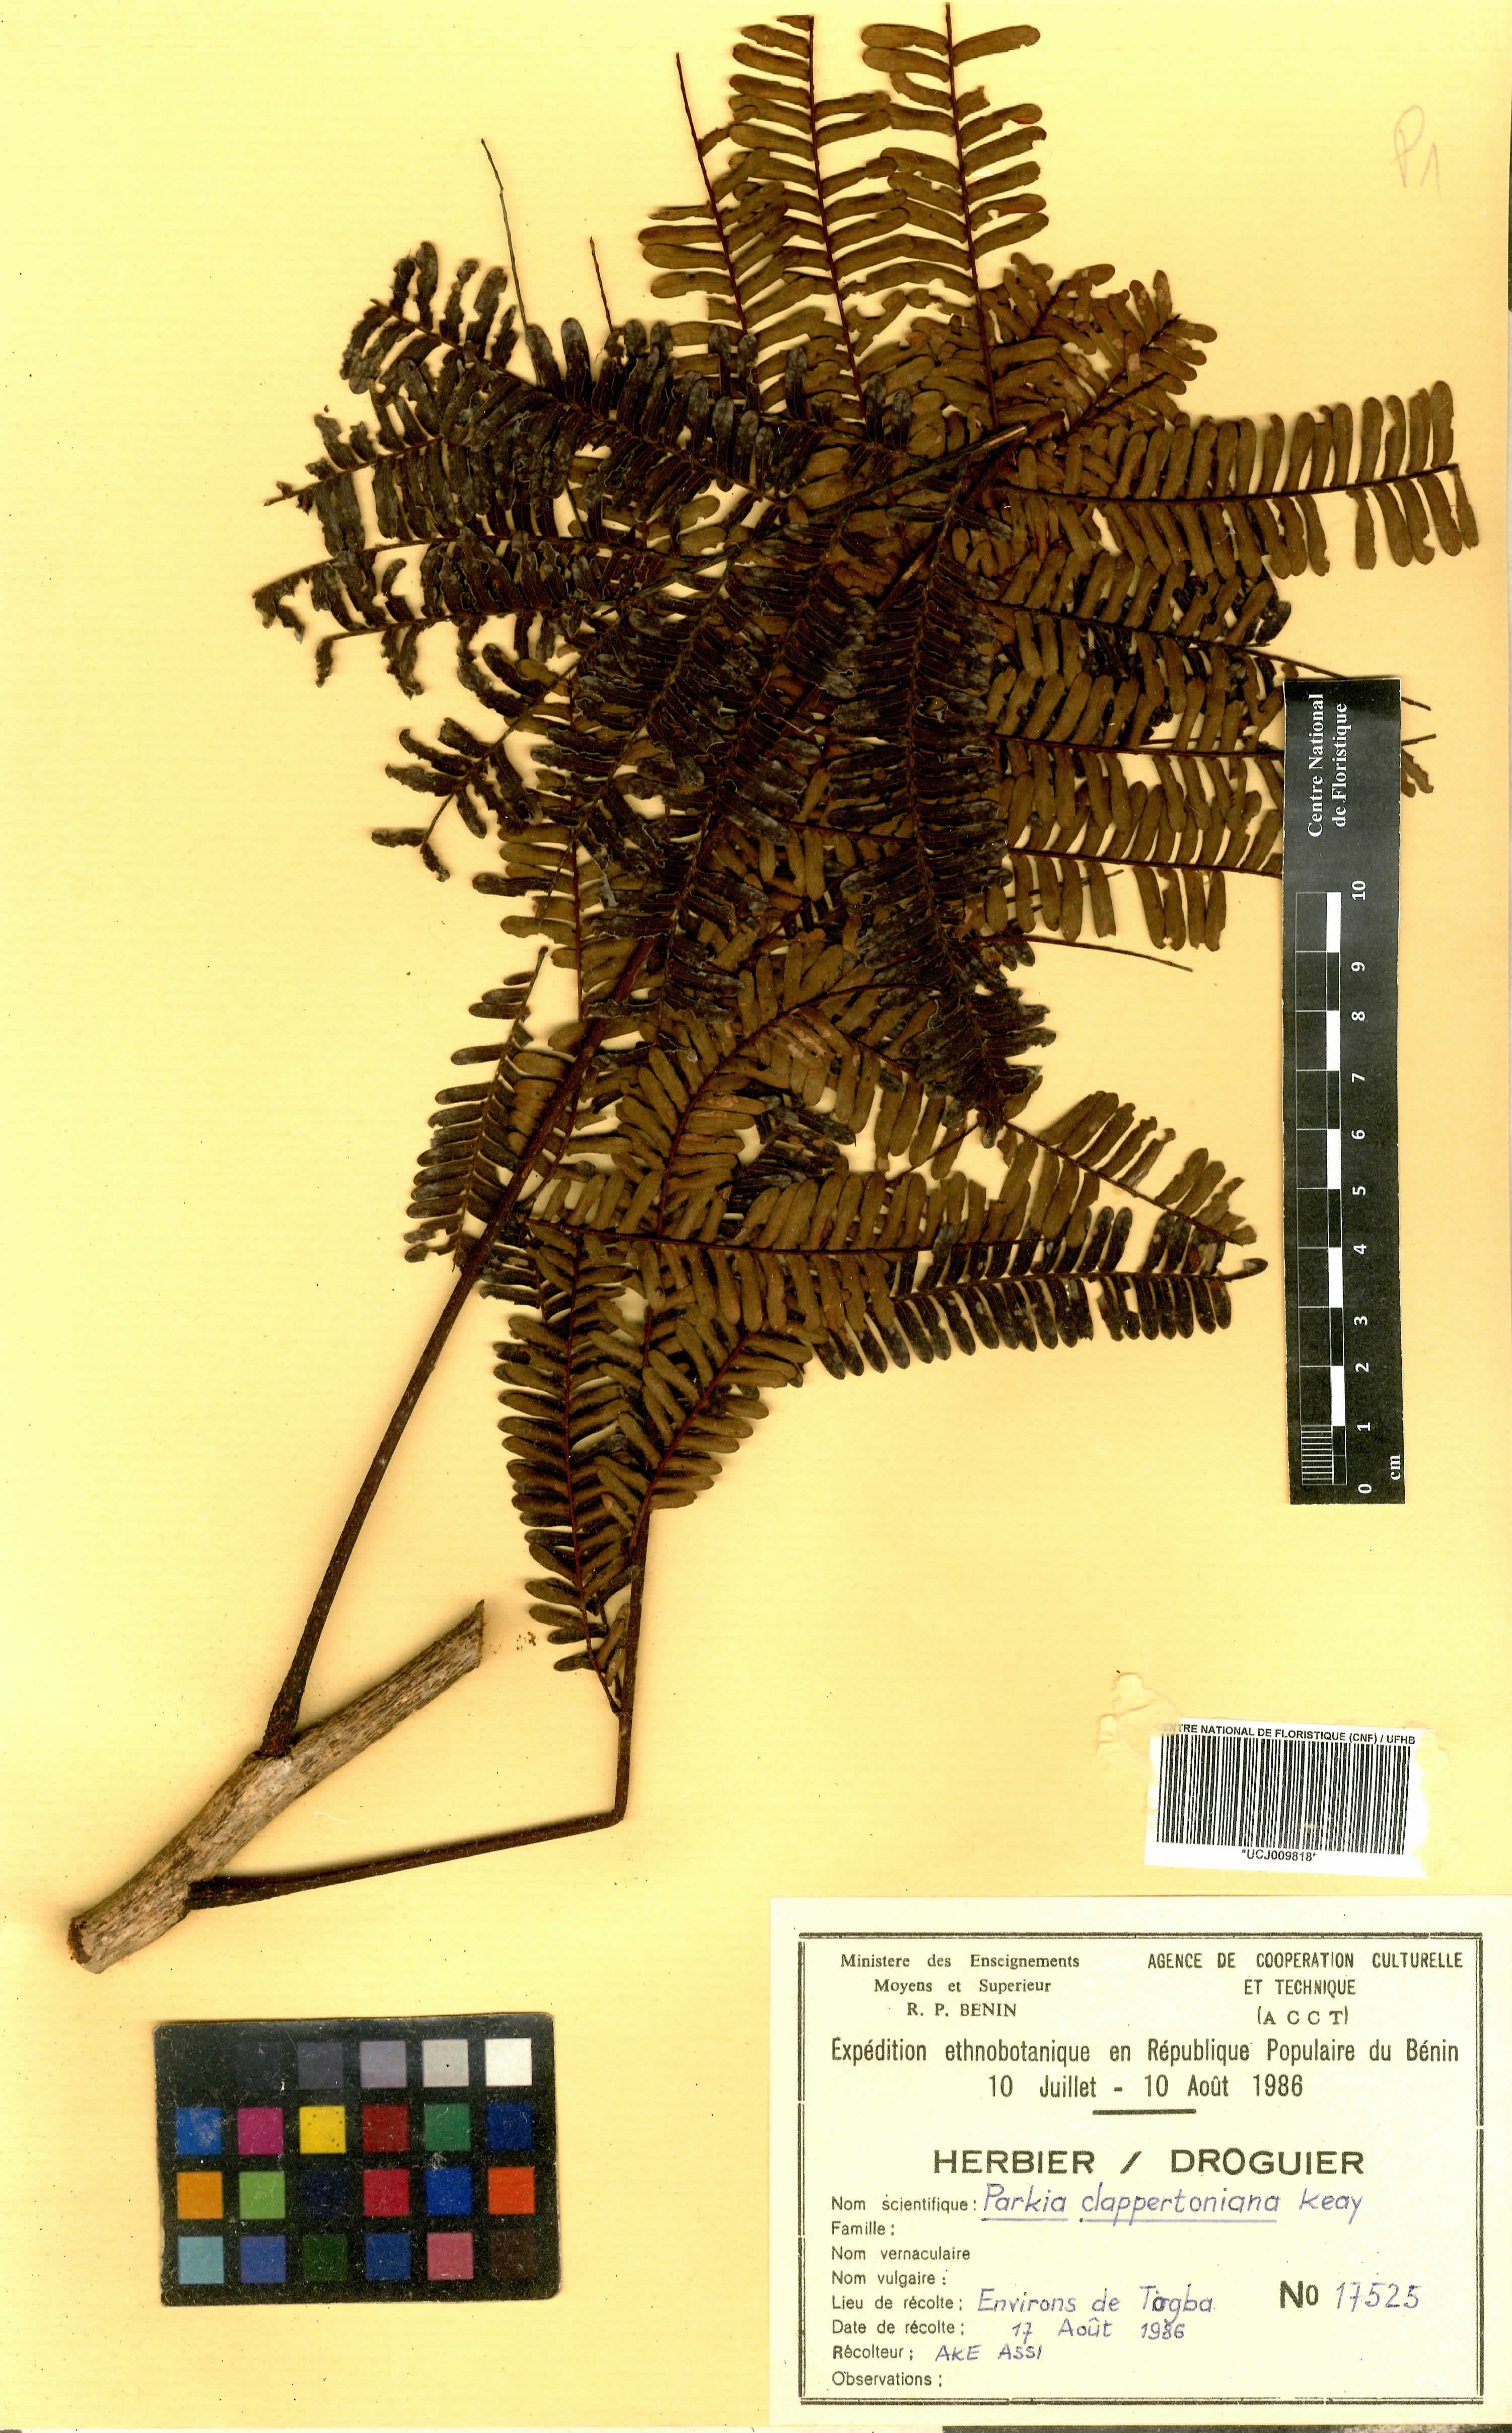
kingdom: Plantae
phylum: Tracheophyta
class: Magnoliopsida
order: Fabales
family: Fabaceae
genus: Parkia
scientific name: Parkia biglobosa
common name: African locust-bean
